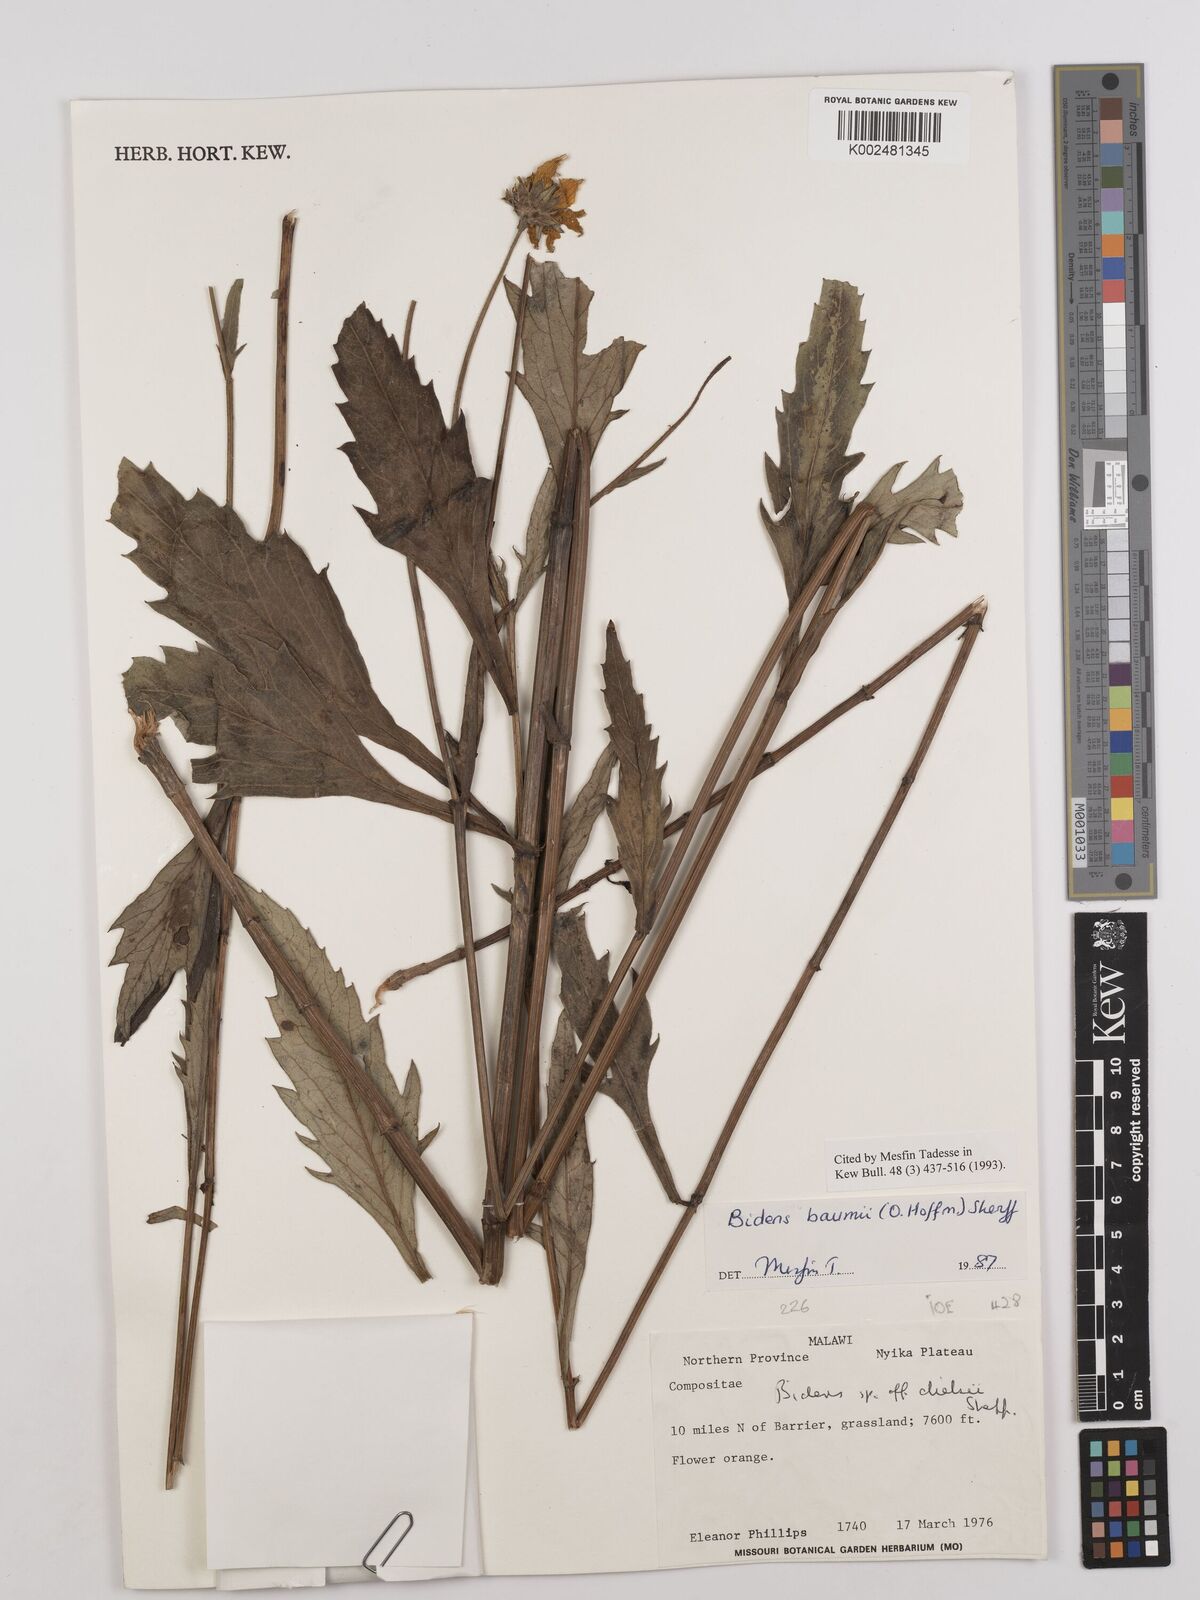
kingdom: Plantae
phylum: Tracheophyta
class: Magnoliopsida
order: Asterales
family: Asteraceae
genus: Bidens
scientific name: Bidens baumii
